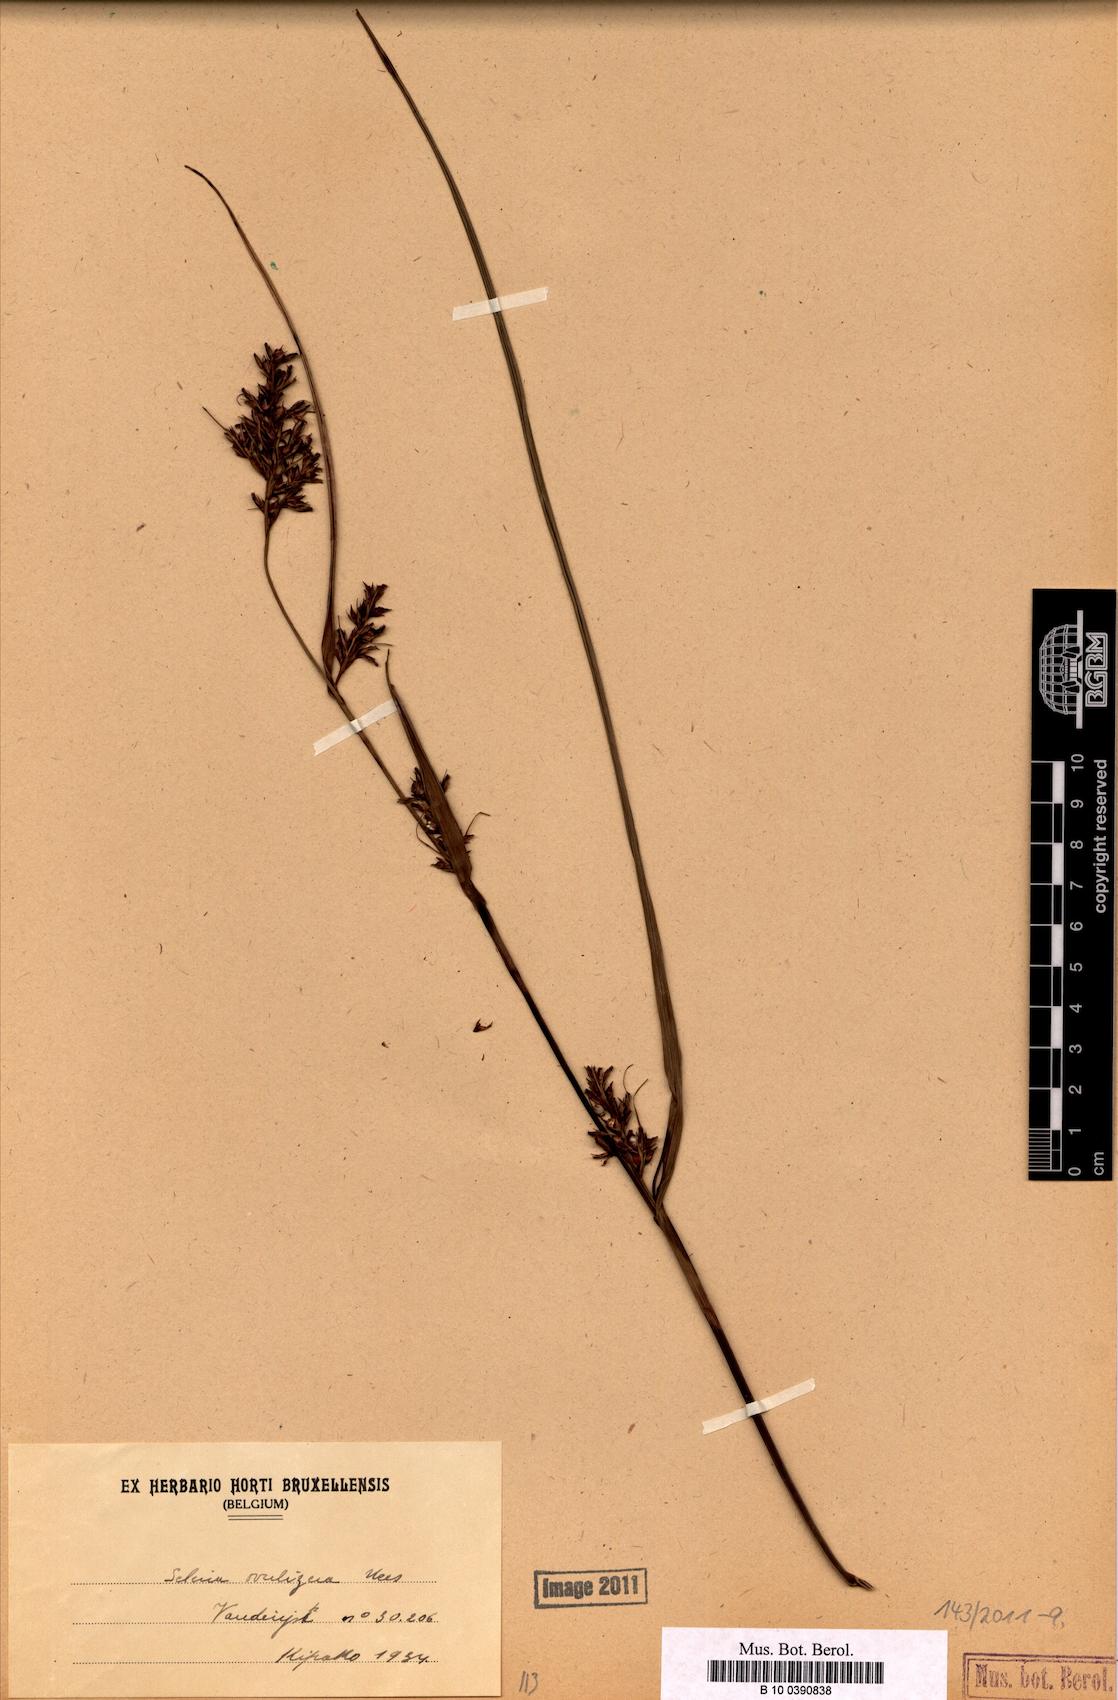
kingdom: Plantae
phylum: Tracheophyta
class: Liliopsida
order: Poales
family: Cyperaceae
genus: Scleria
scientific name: Scleria induta
